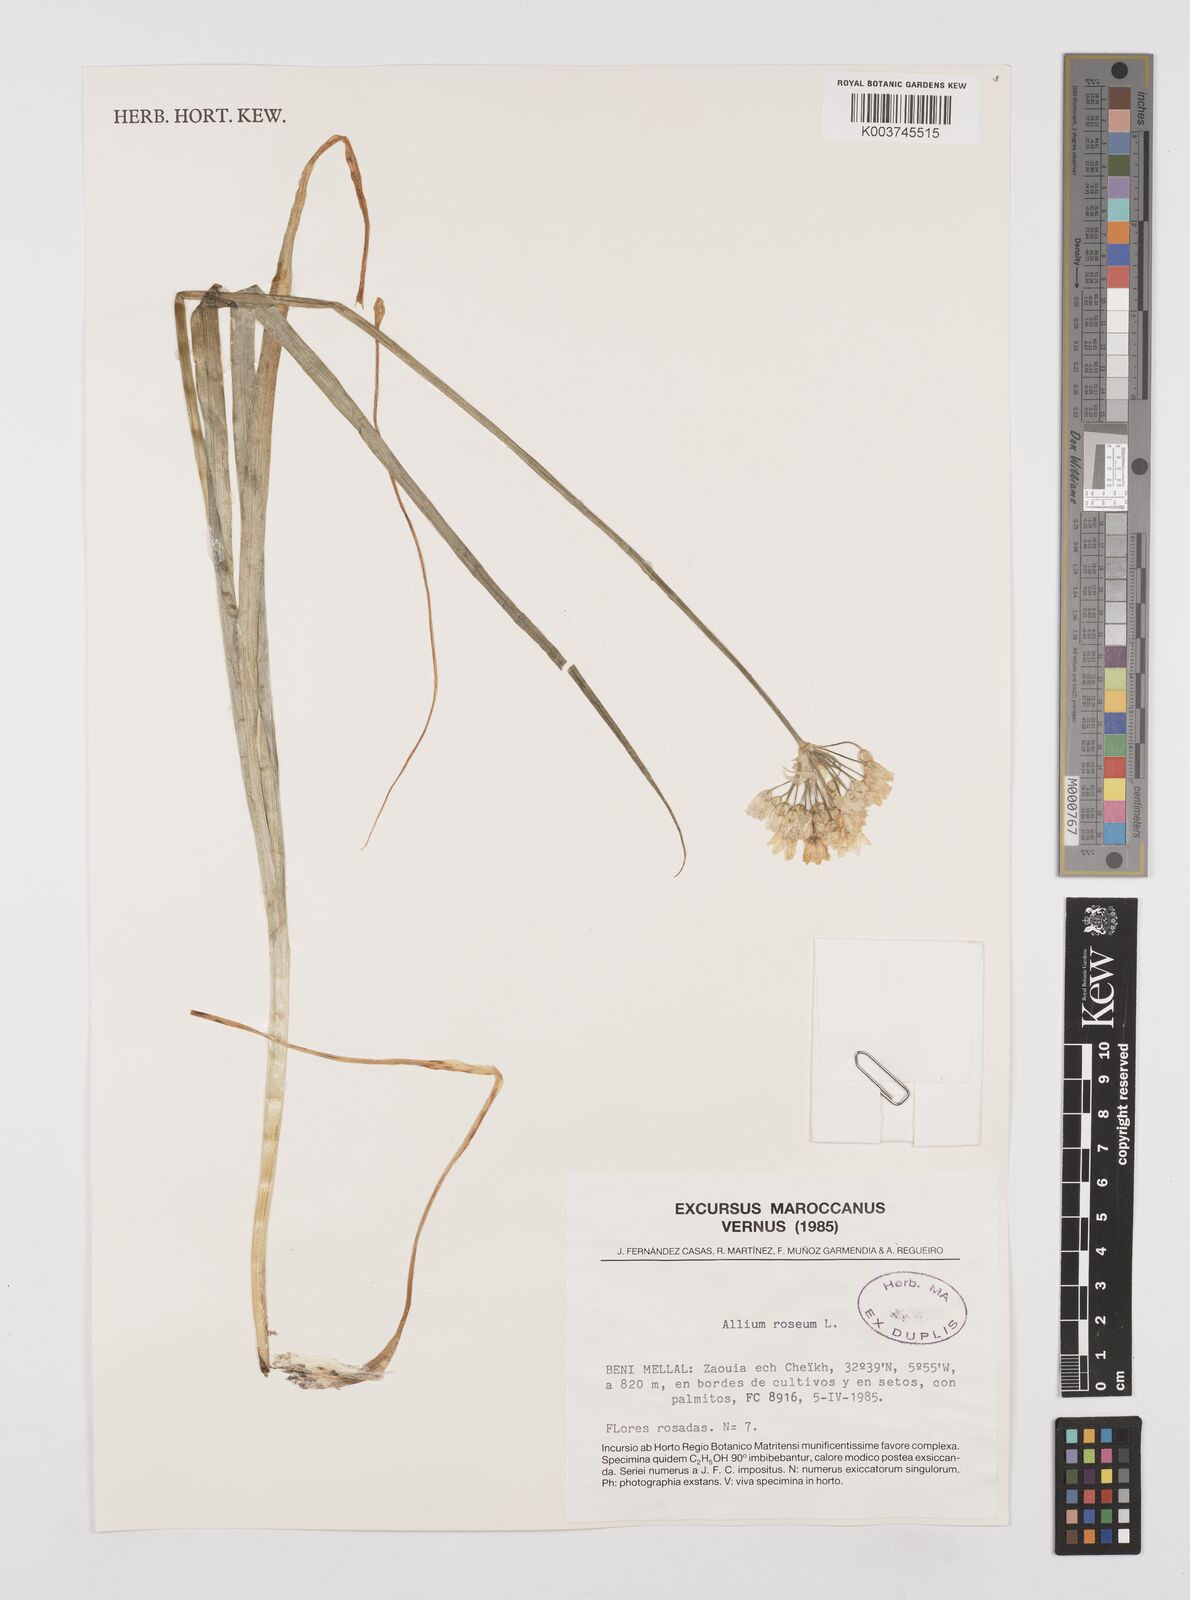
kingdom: Plantae
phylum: Tracheophyta
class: Liliopsida
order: Asparagales
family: Amaryllidaceae
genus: Allium
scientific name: Allium roseum
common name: Rosy garlic
